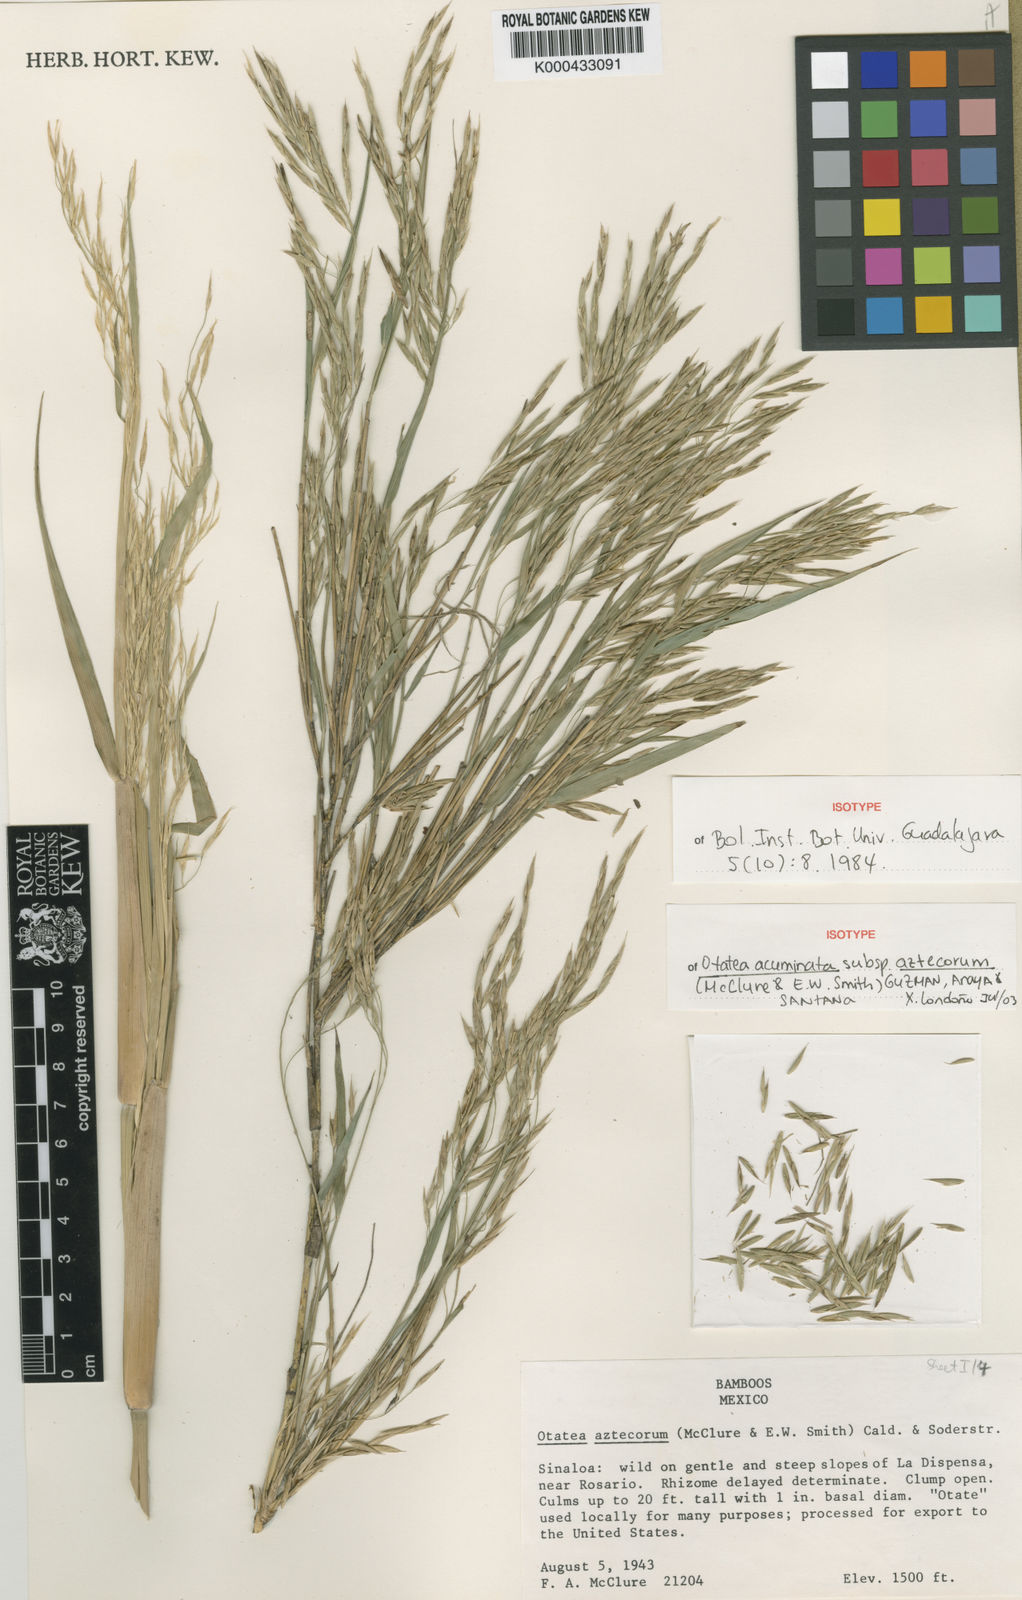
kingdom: Plantae
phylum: Tracheophyta
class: Liliopsida
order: Poales
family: Poaceae
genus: Otatea
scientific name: Otatea acuminata
